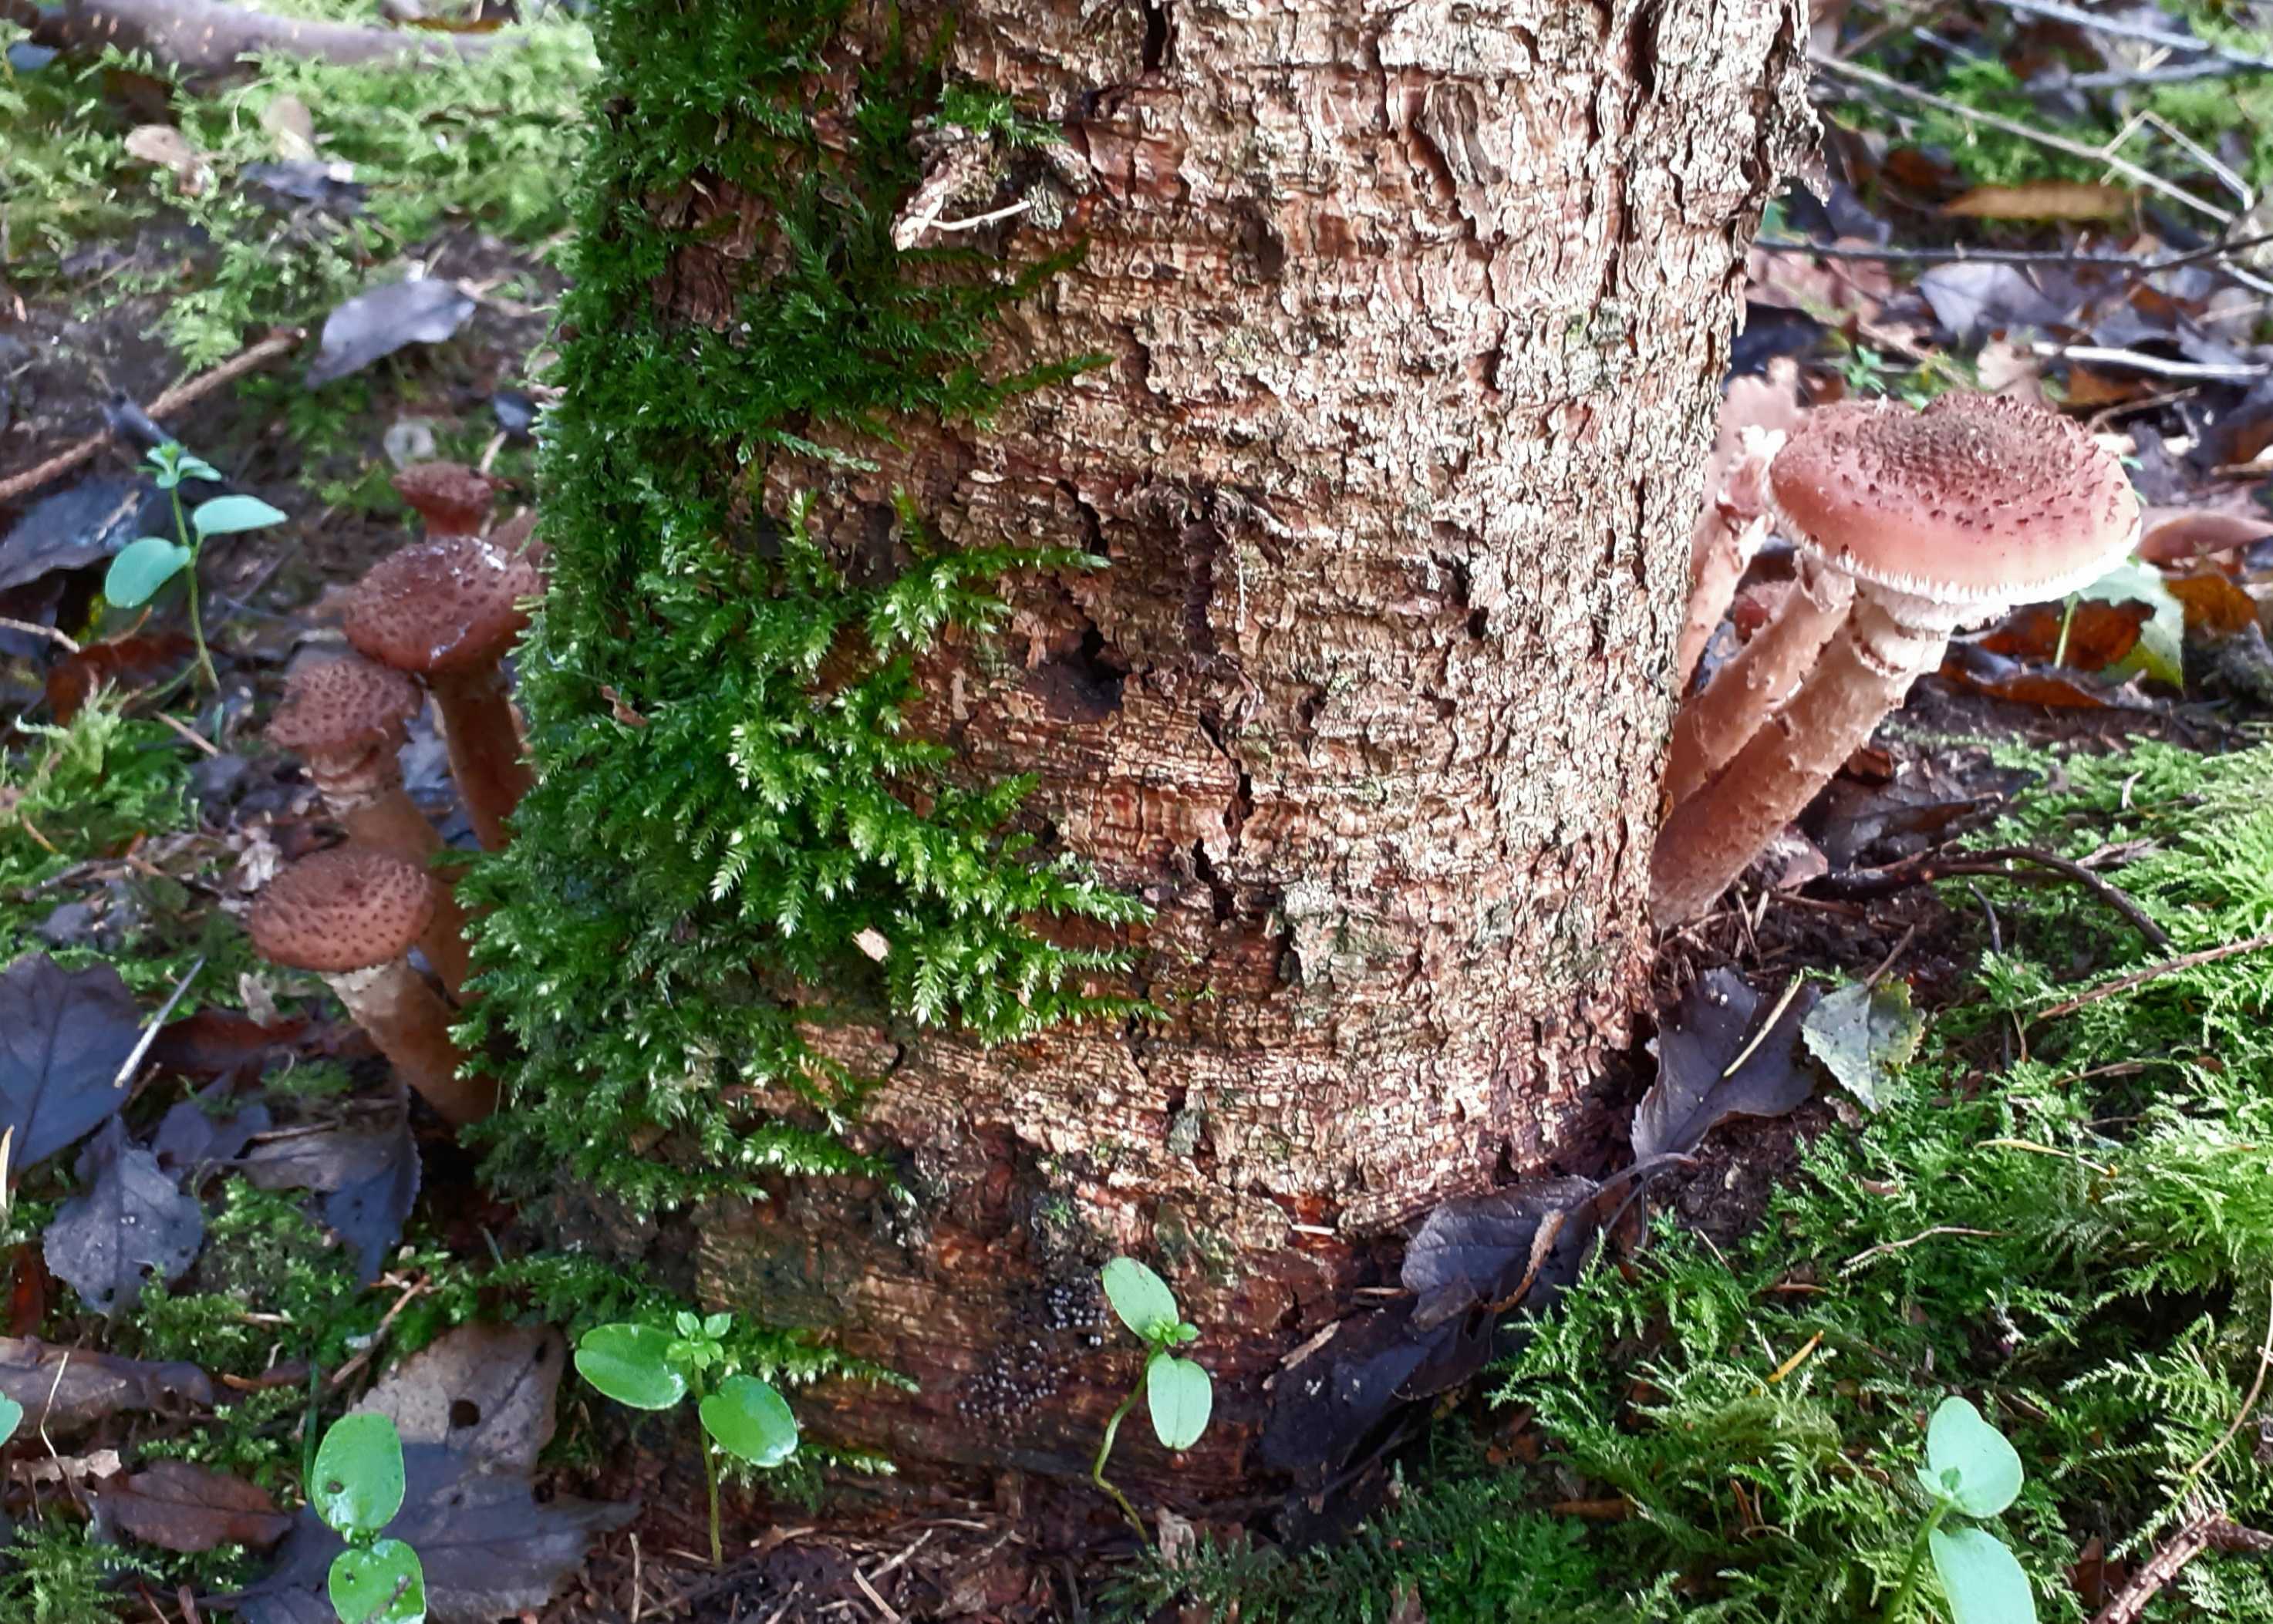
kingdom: Fungi
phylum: Basidiomycota
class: Agaricomycetes
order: Agaricales
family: Physalacriaceae
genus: Armillaria
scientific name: Armillaria ostoyae
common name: mørk honningsvamp
